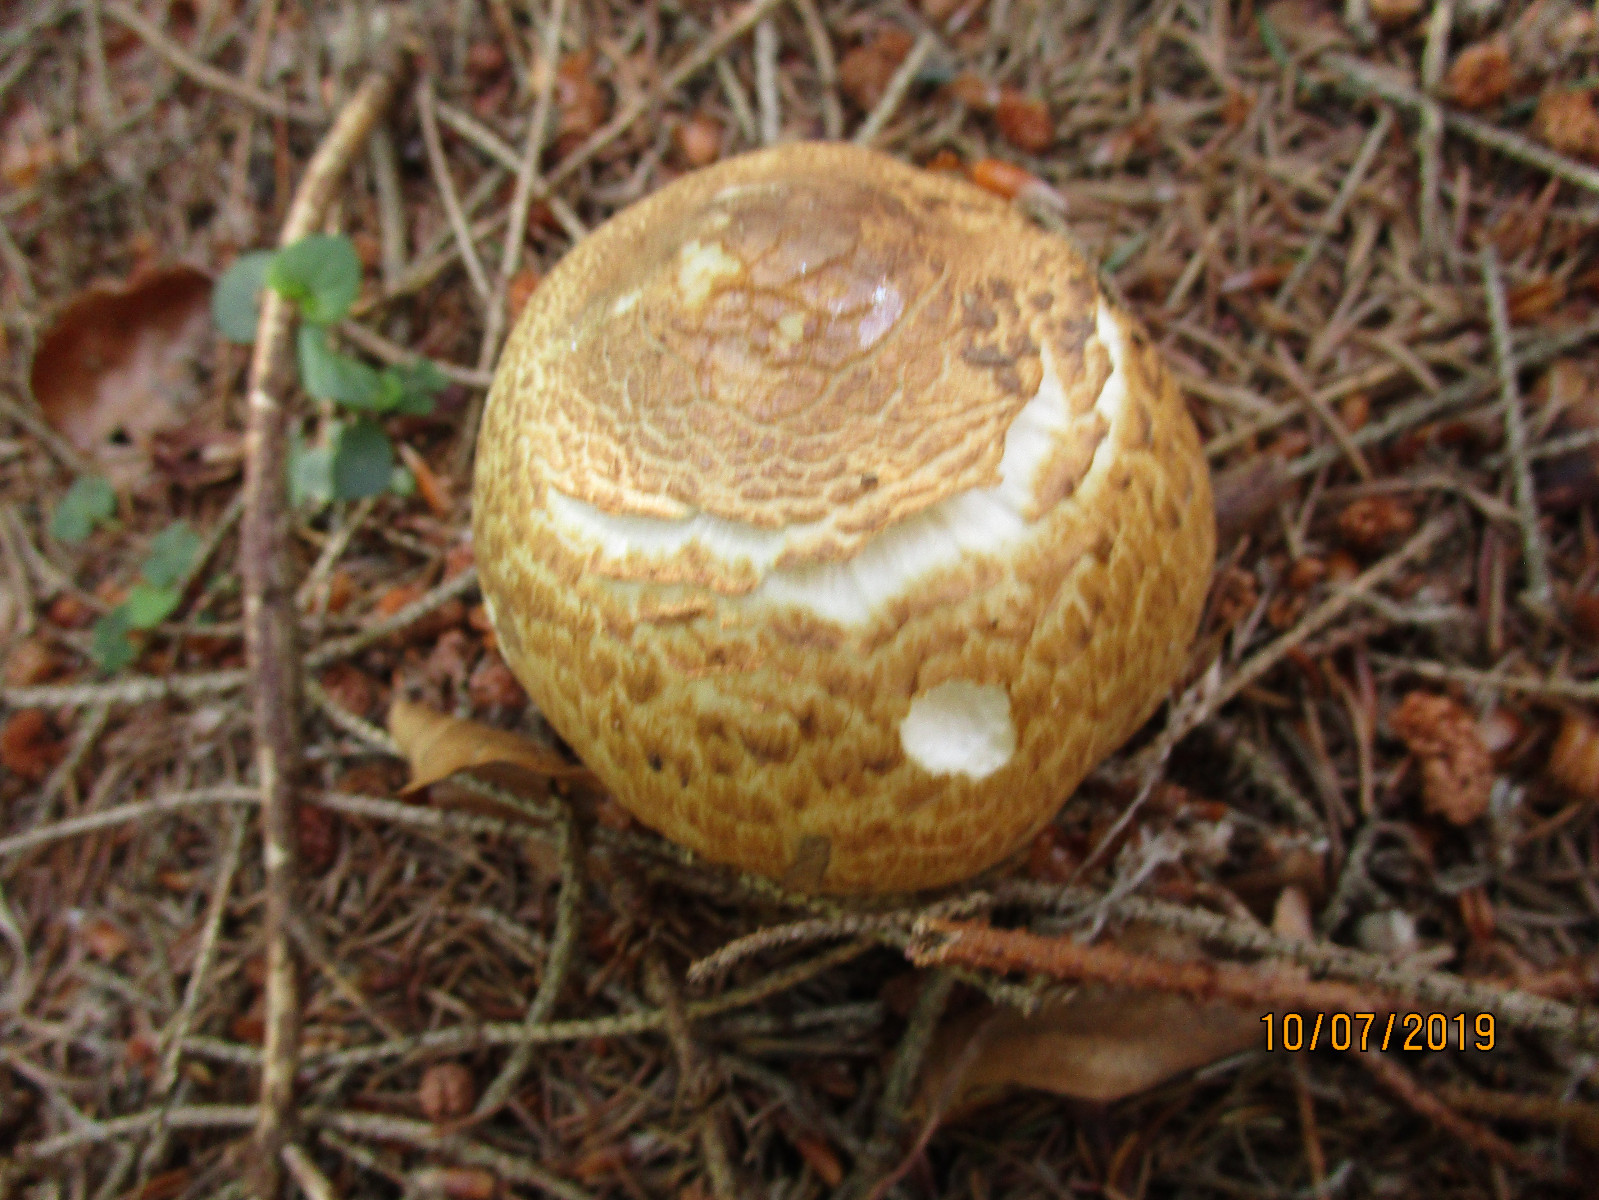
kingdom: Fungi
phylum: Basidiomycota
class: Agaricomycetes
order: Agaricales
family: Agaricaceae
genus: Agaricus
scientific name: Agaricus augustus
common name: prægtig champignon
